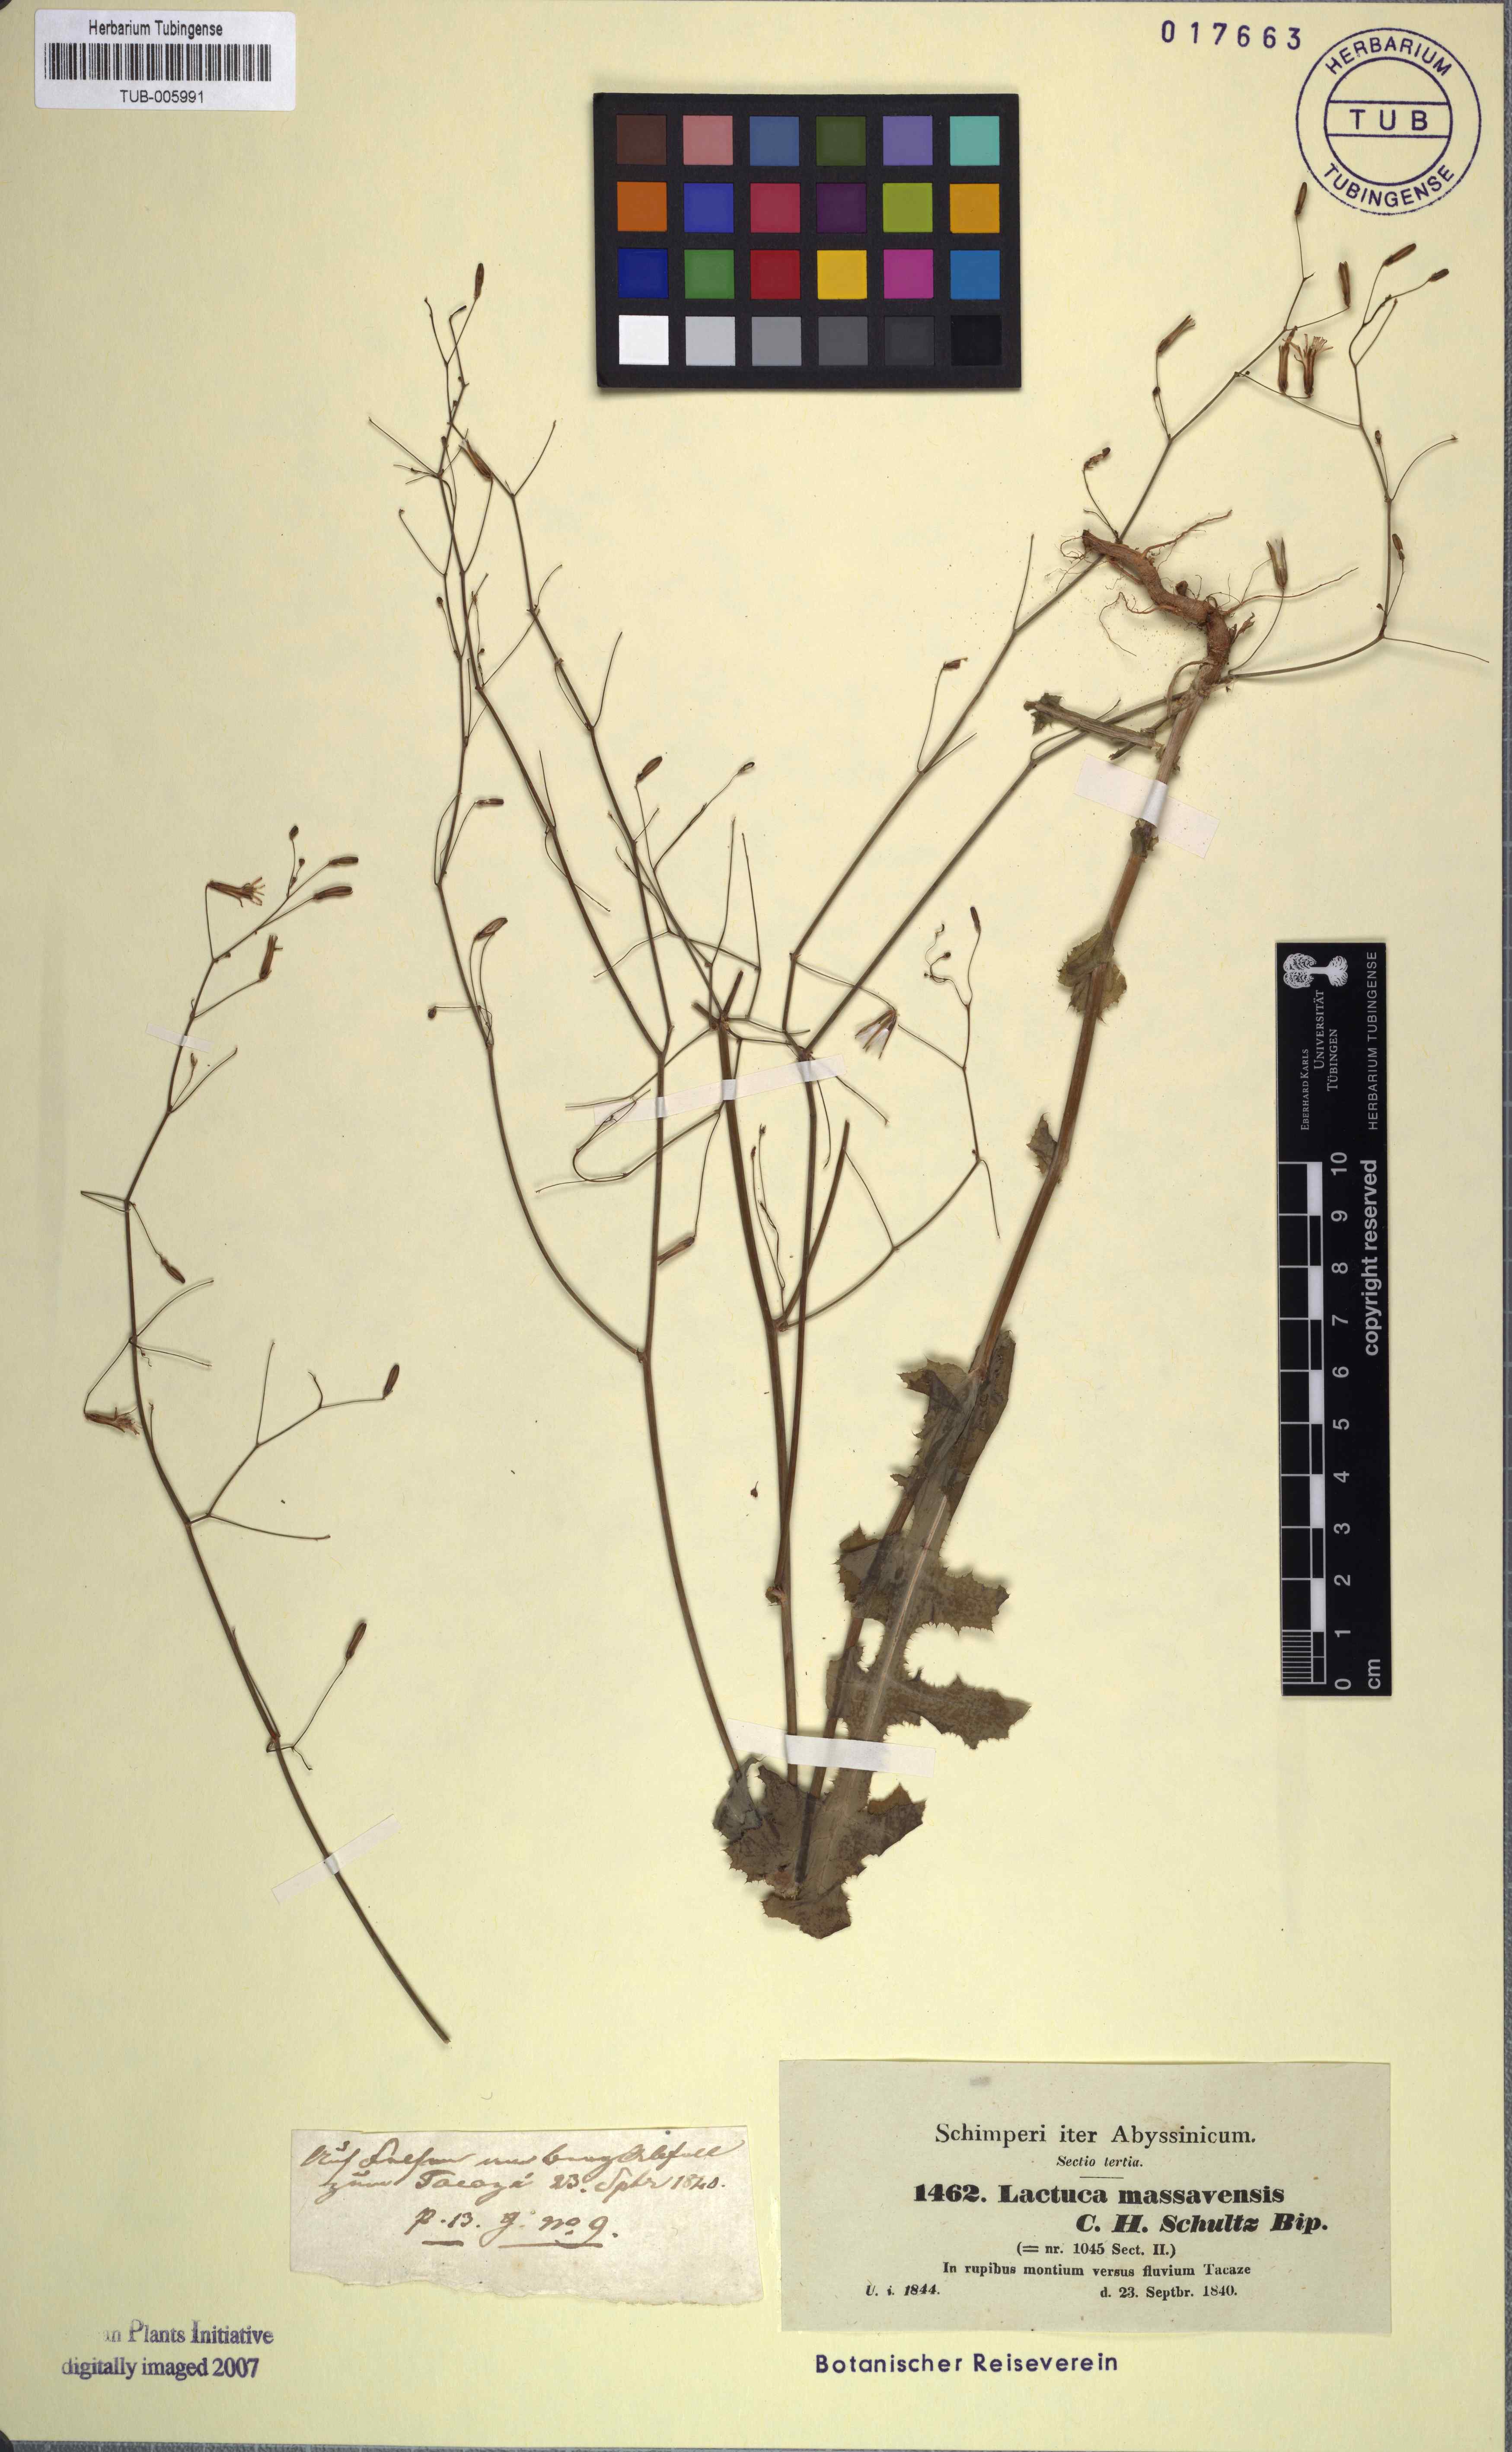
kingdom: Plantae
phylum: Tracheophyta
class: Magnoliopsida
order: Asterales
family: Asteraceae
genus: Lactuca
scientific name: Lactuca massaviensis
